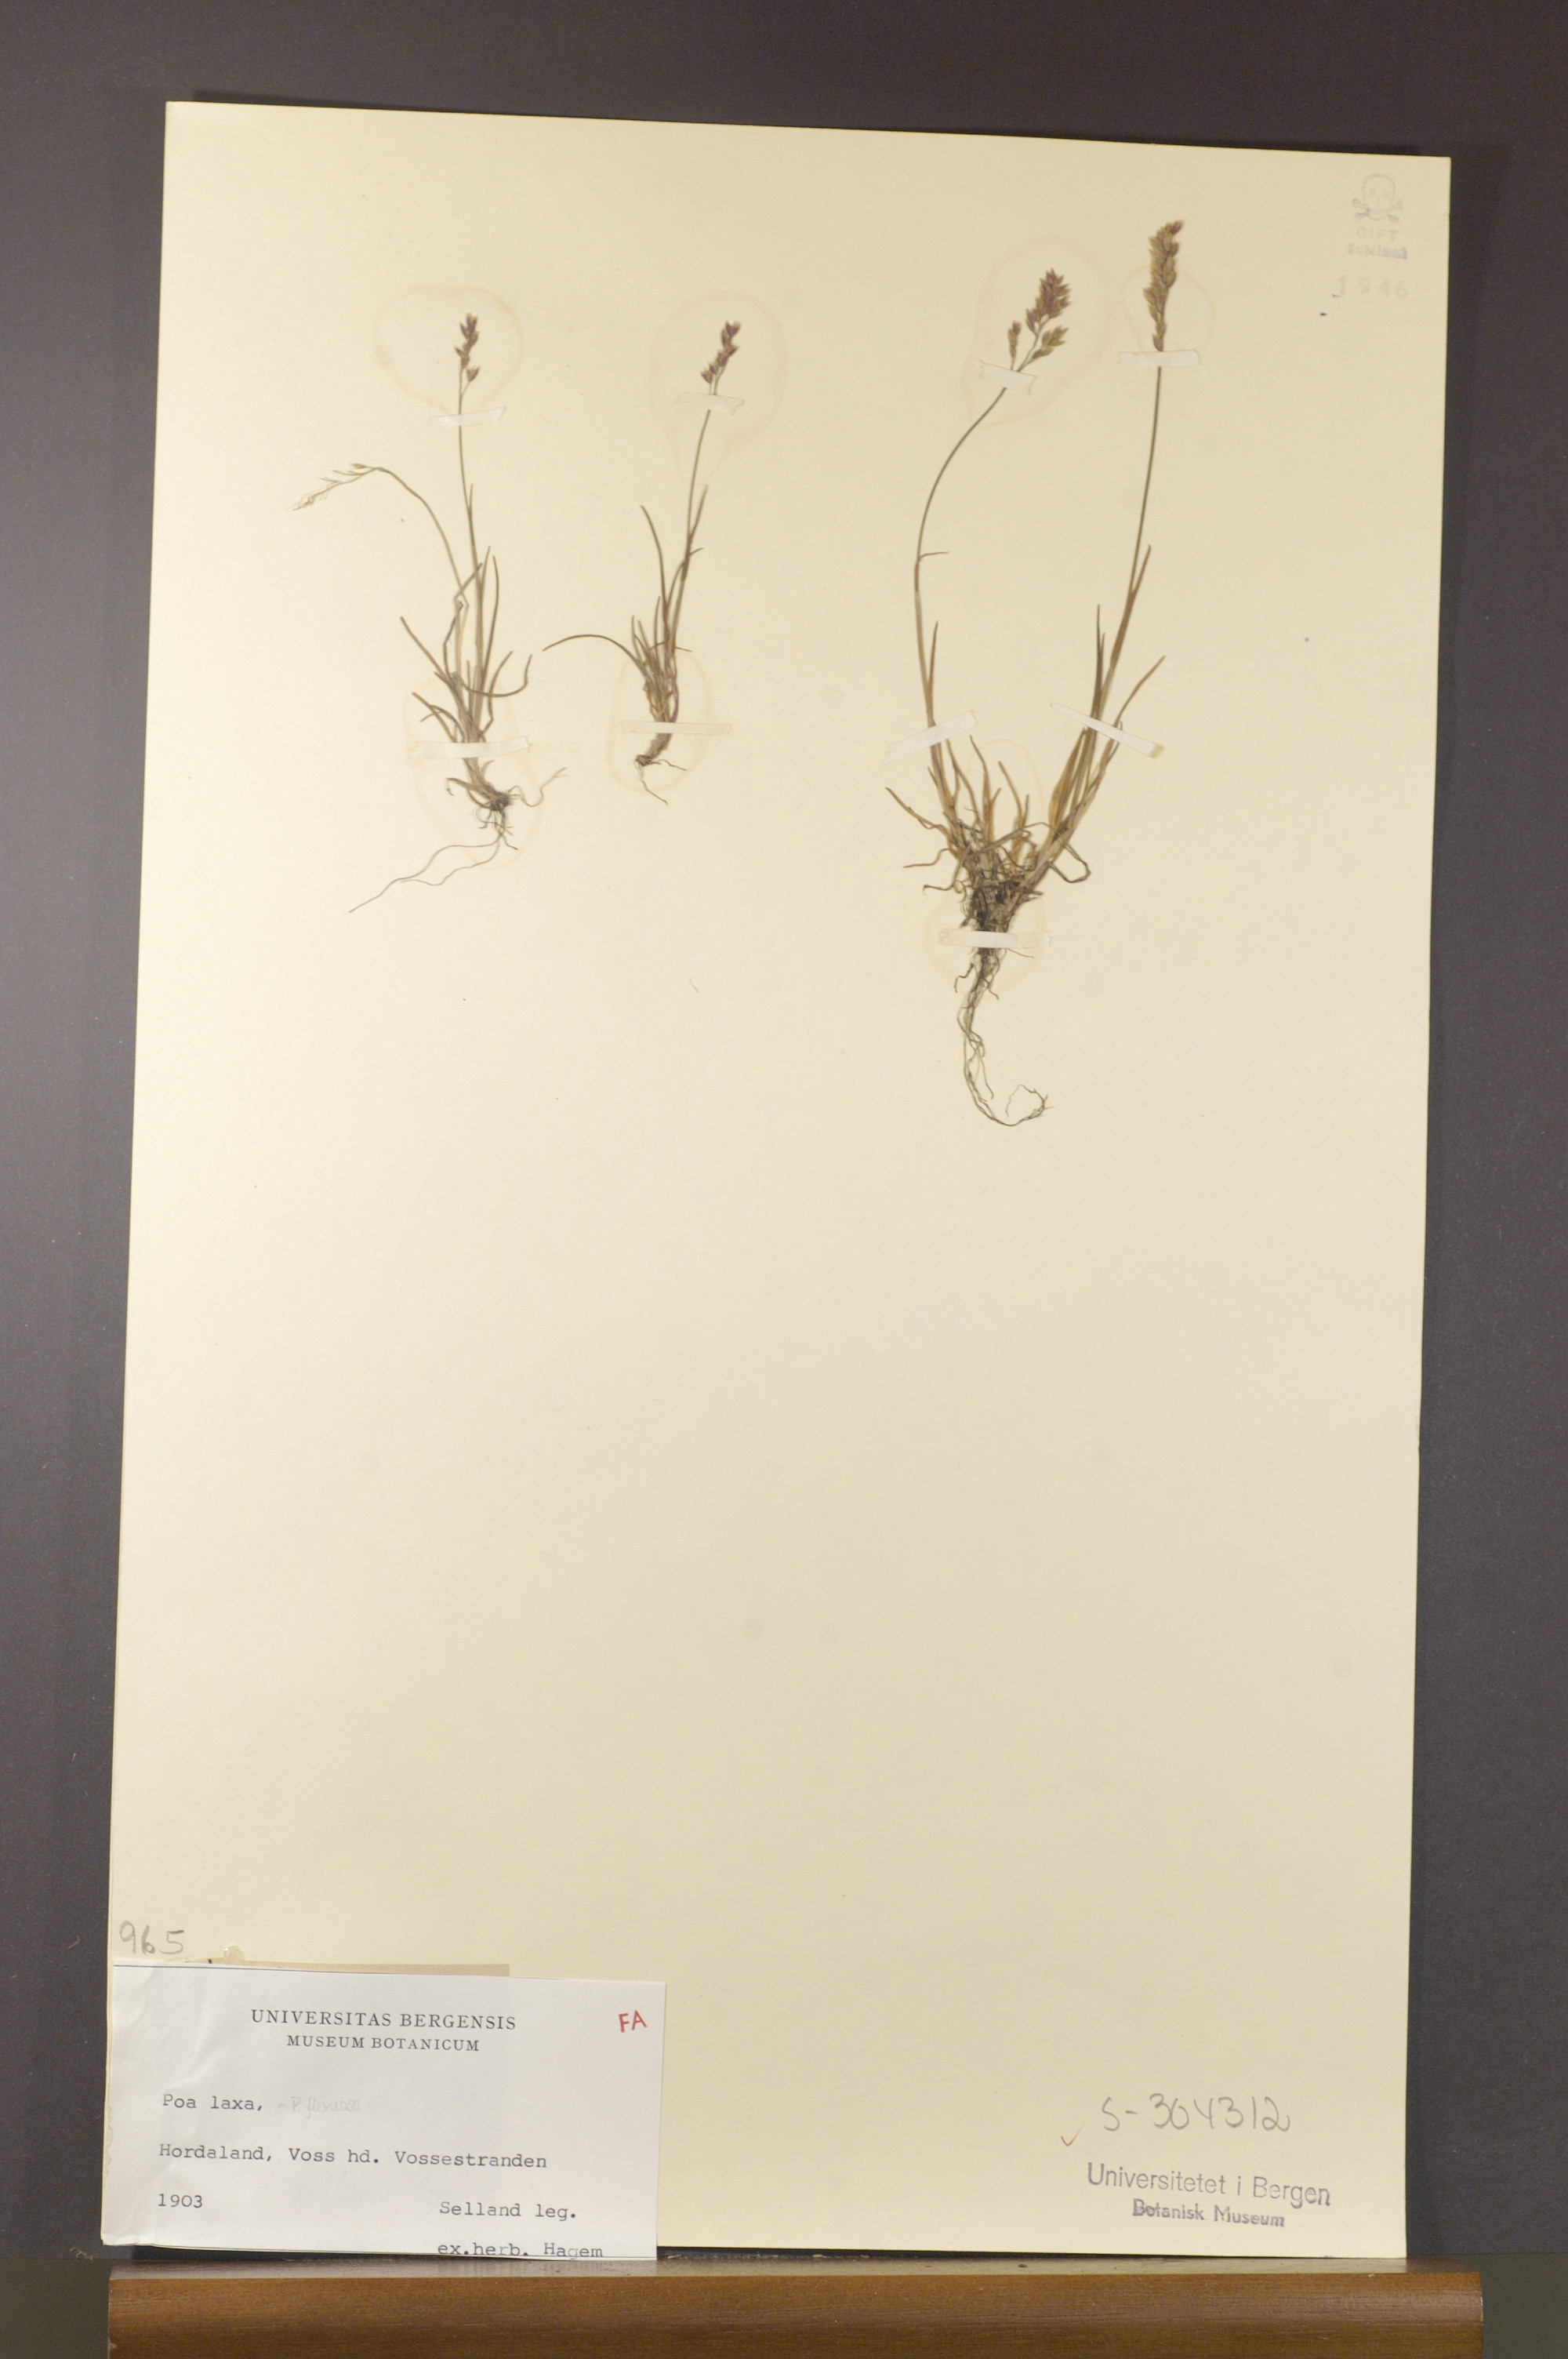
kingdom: Plantae
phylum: Tracheophyta
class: Liliopsida
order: Poales
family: Poaceae
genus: Poa
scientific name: Poa laxa
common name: Lax bluegrass
